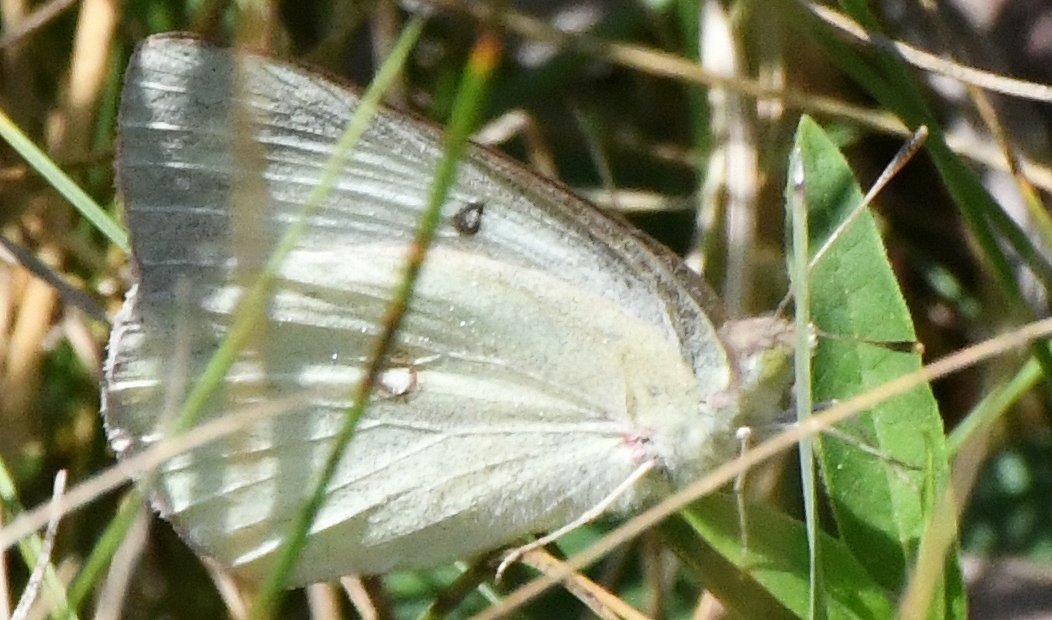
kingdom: Animalia
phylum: Arthropoda
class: Insecta
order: Lepidoptera
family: Pieridae
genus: Colias
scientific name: Colias philodice
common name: Clouded Sulphur
